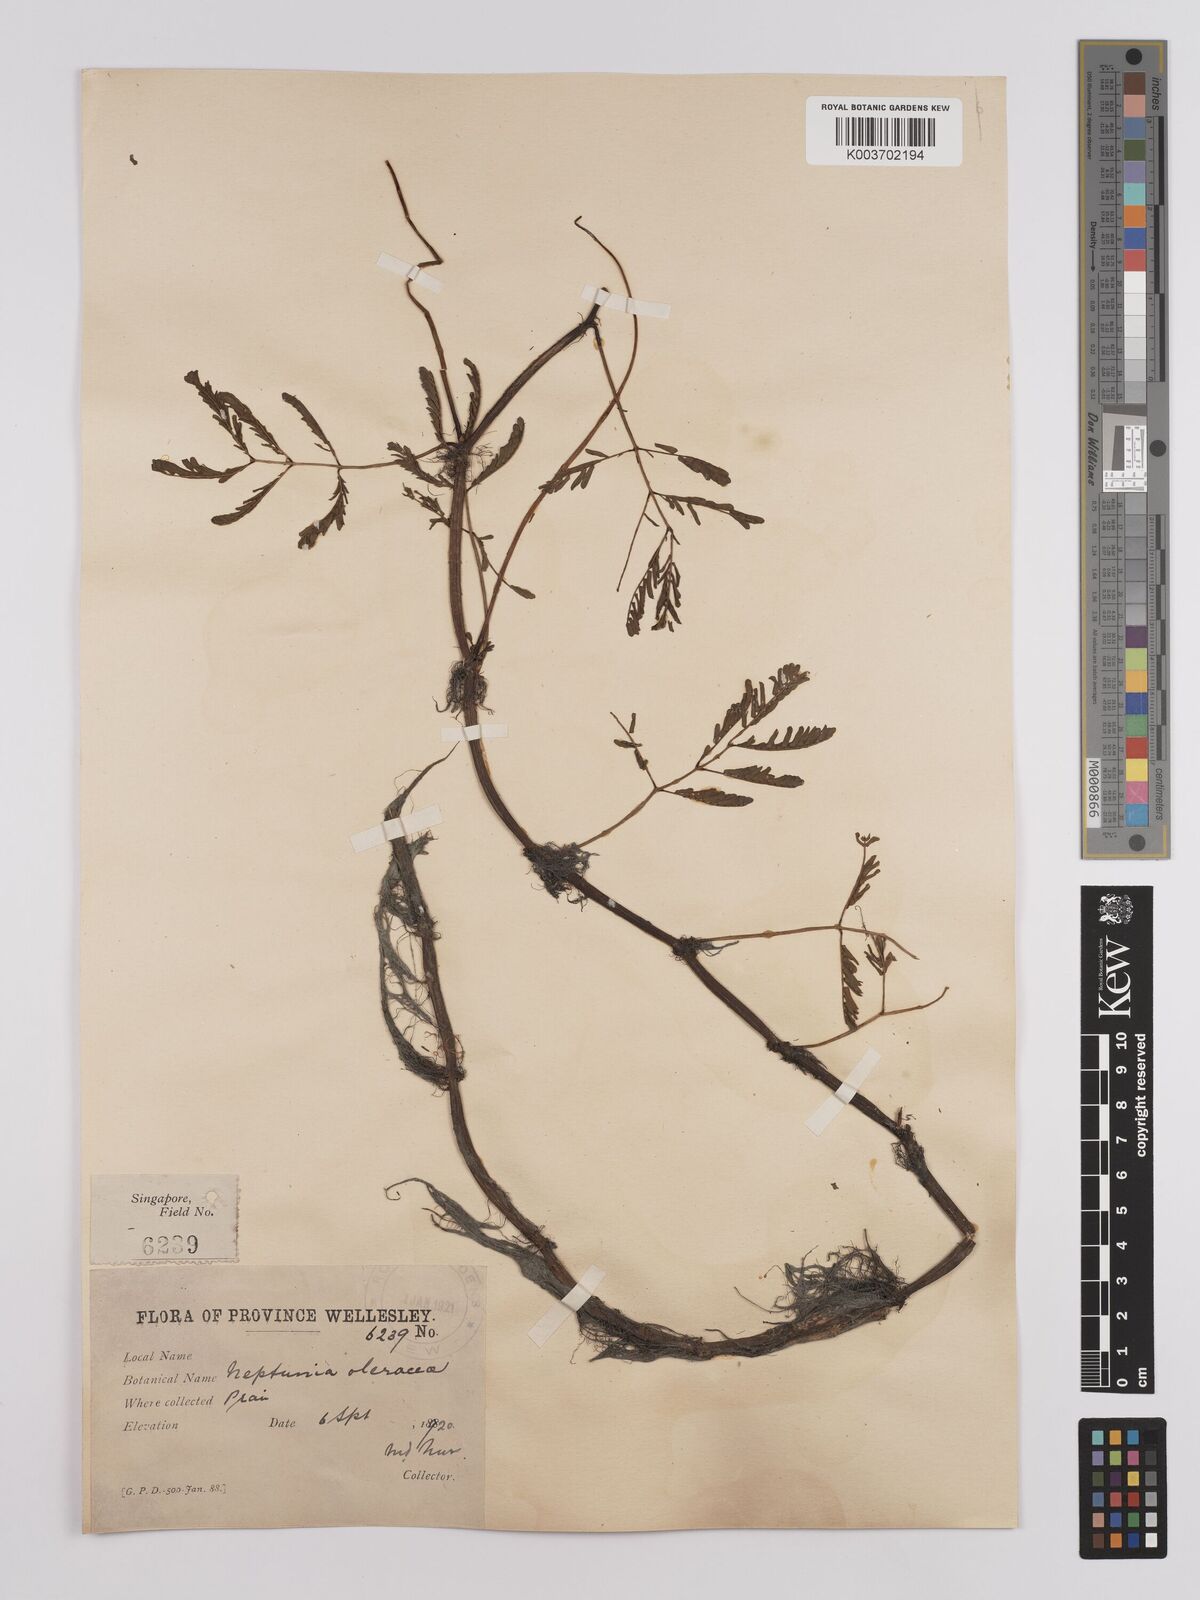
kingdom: Plantae
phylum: Tracheophyta
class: Magnoliopsida
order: Fabales
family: Fabaceae
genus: Neptunia
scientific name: Neptunia prostrata
